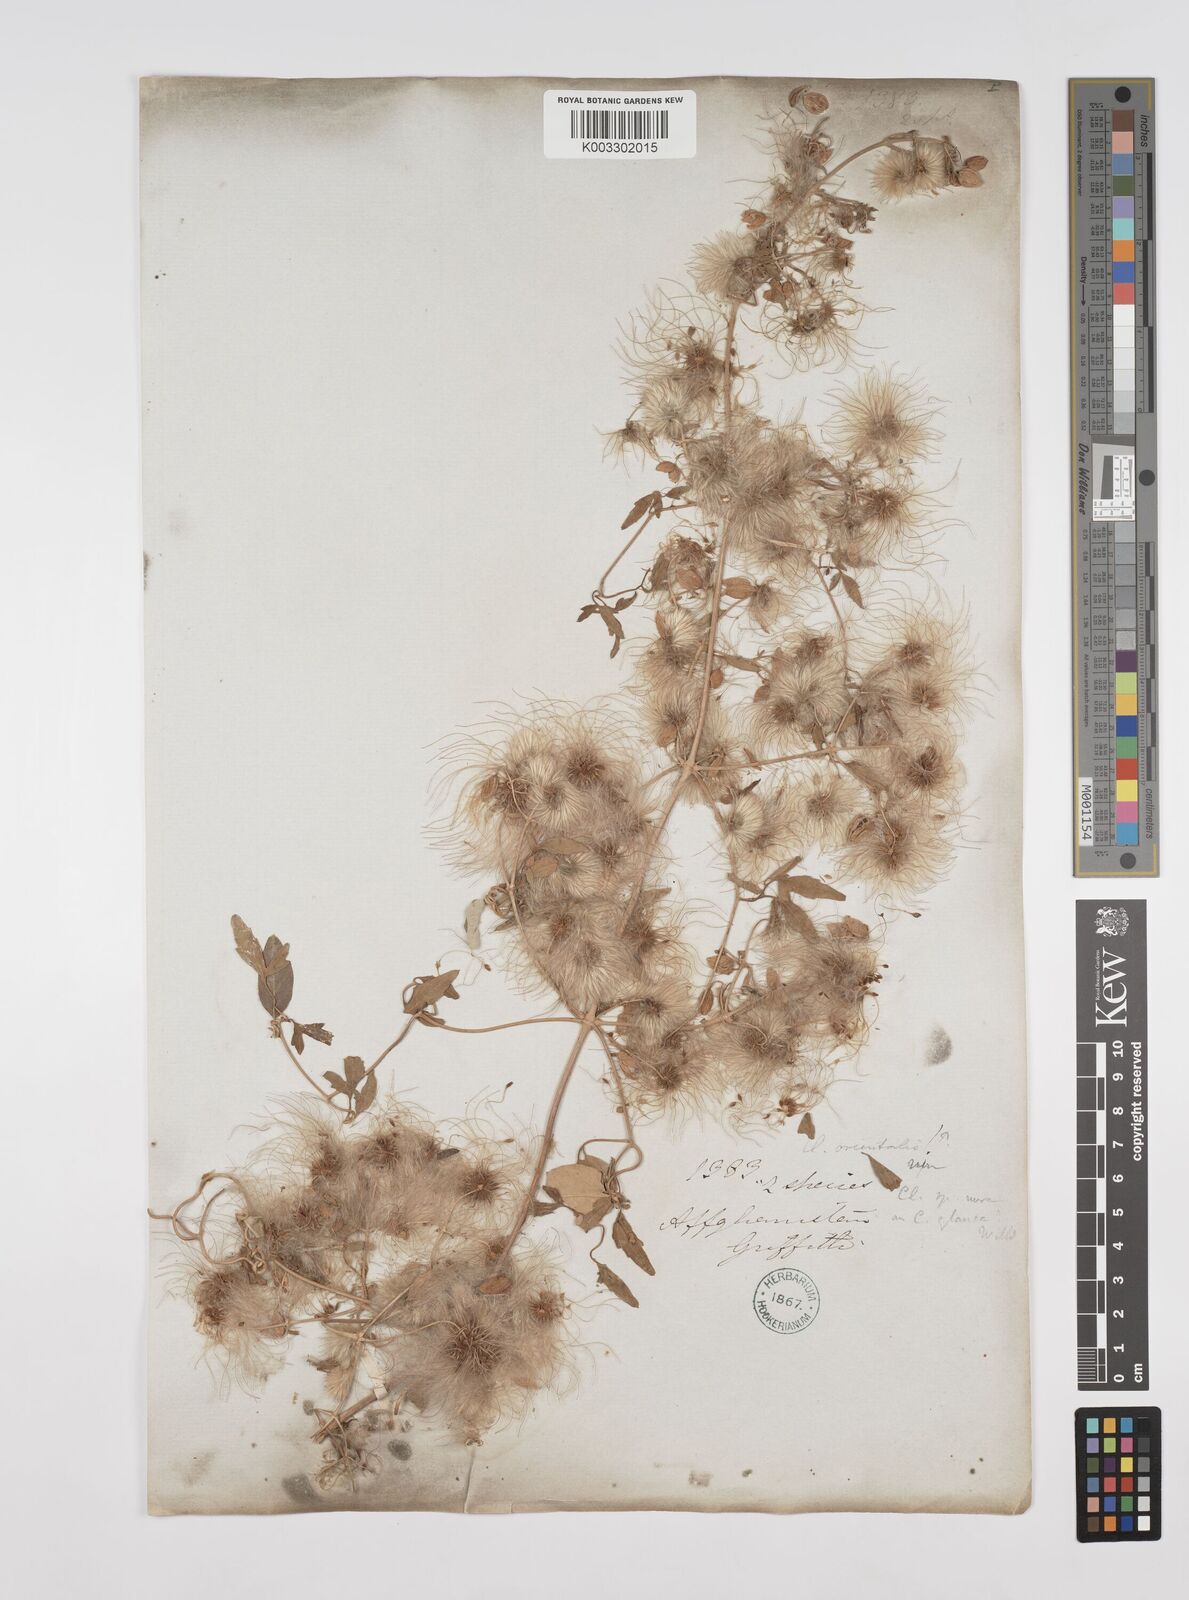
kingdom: Plantae
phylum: Tracheophyta
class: Magnoliopsida
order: Ranunculales
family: Ranunculaceae
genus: Clematis
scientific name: Clematis orientalis
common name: Oriental virgin's-bower
